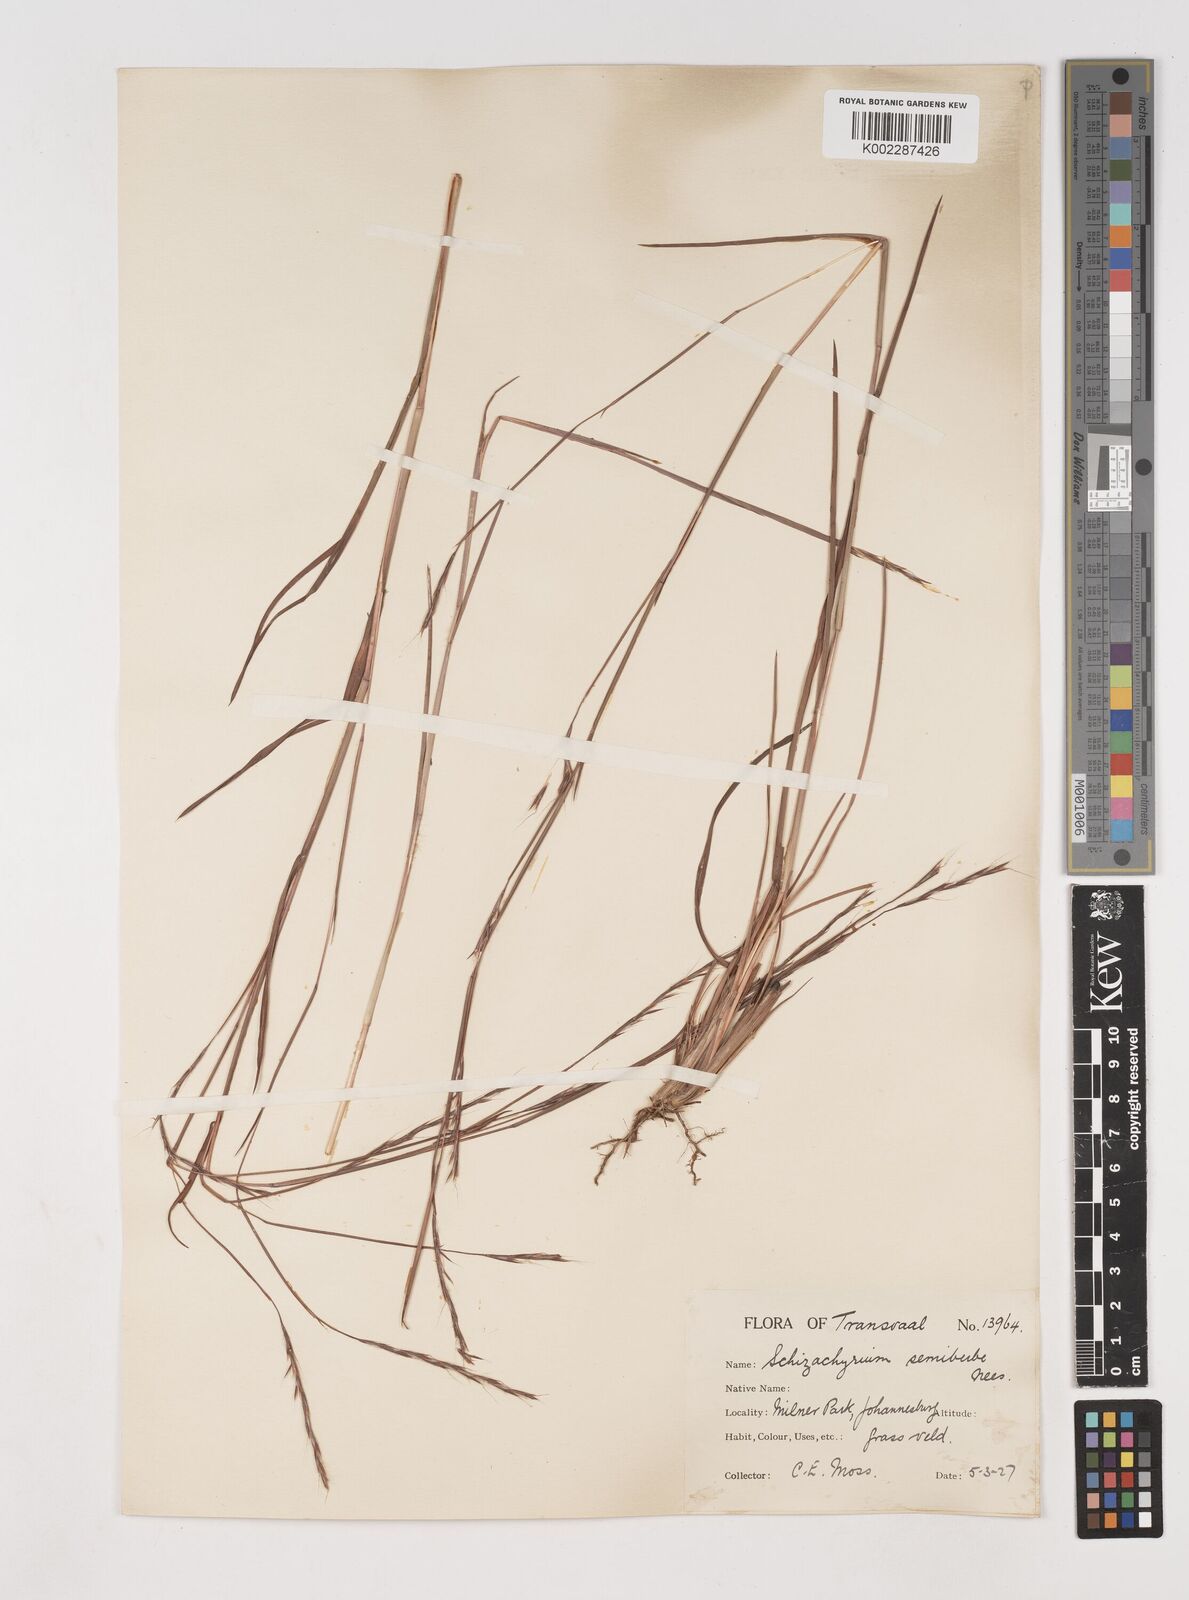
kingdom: Plantae
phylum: Tracheophyta
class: Liliopsida
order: Poales
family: Poaceae
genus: Schizachyrium
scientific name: Schizachyrium sanguineum
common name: Crimson bluestem
